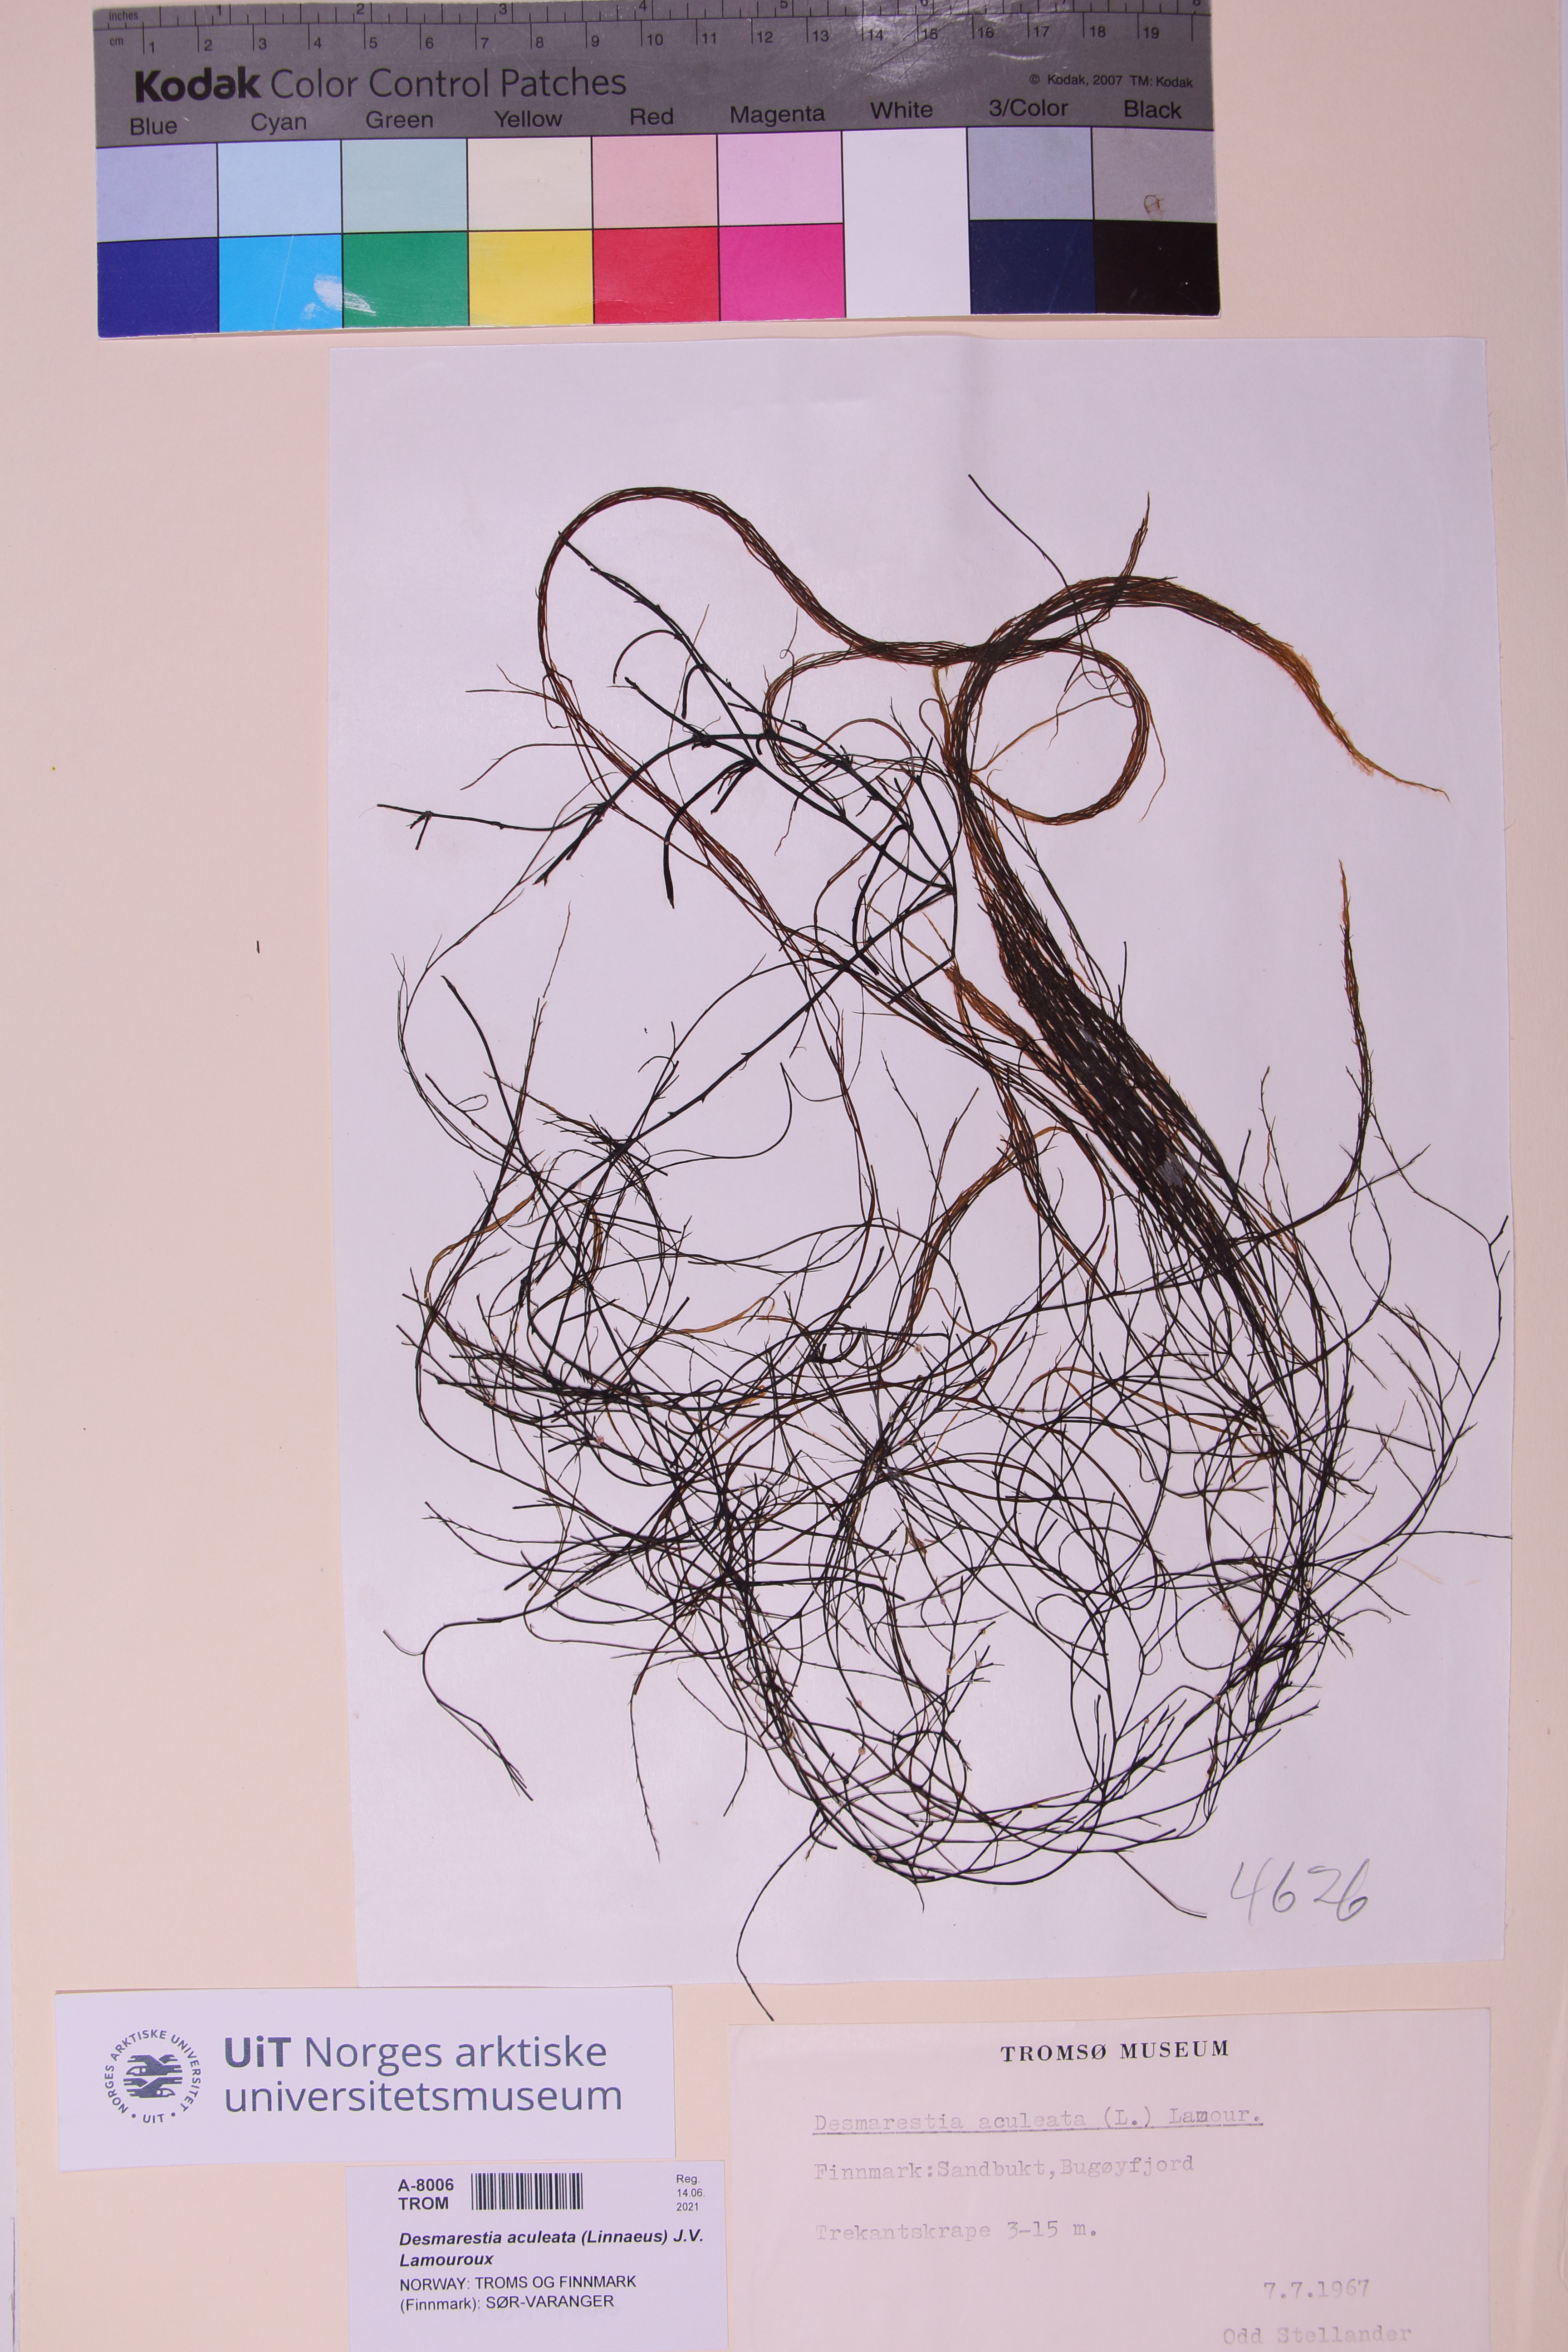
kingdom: Chromista
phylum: Ochrophyta
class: Phaeophyceae
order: Desmarestiales
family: Desmarestiaceae
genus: Desmarestia
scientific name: Desmarestia aculeata
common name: Witch's hair
